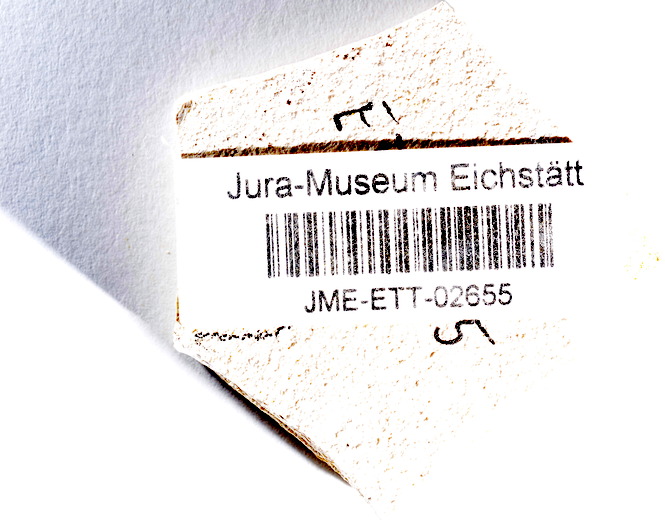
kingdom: Animalia
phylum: Chordata
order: Salmoniformes
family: Orthogonikleithridae
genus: Orthogonikleithrus
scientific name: Orthogonikleithrus hoelli
